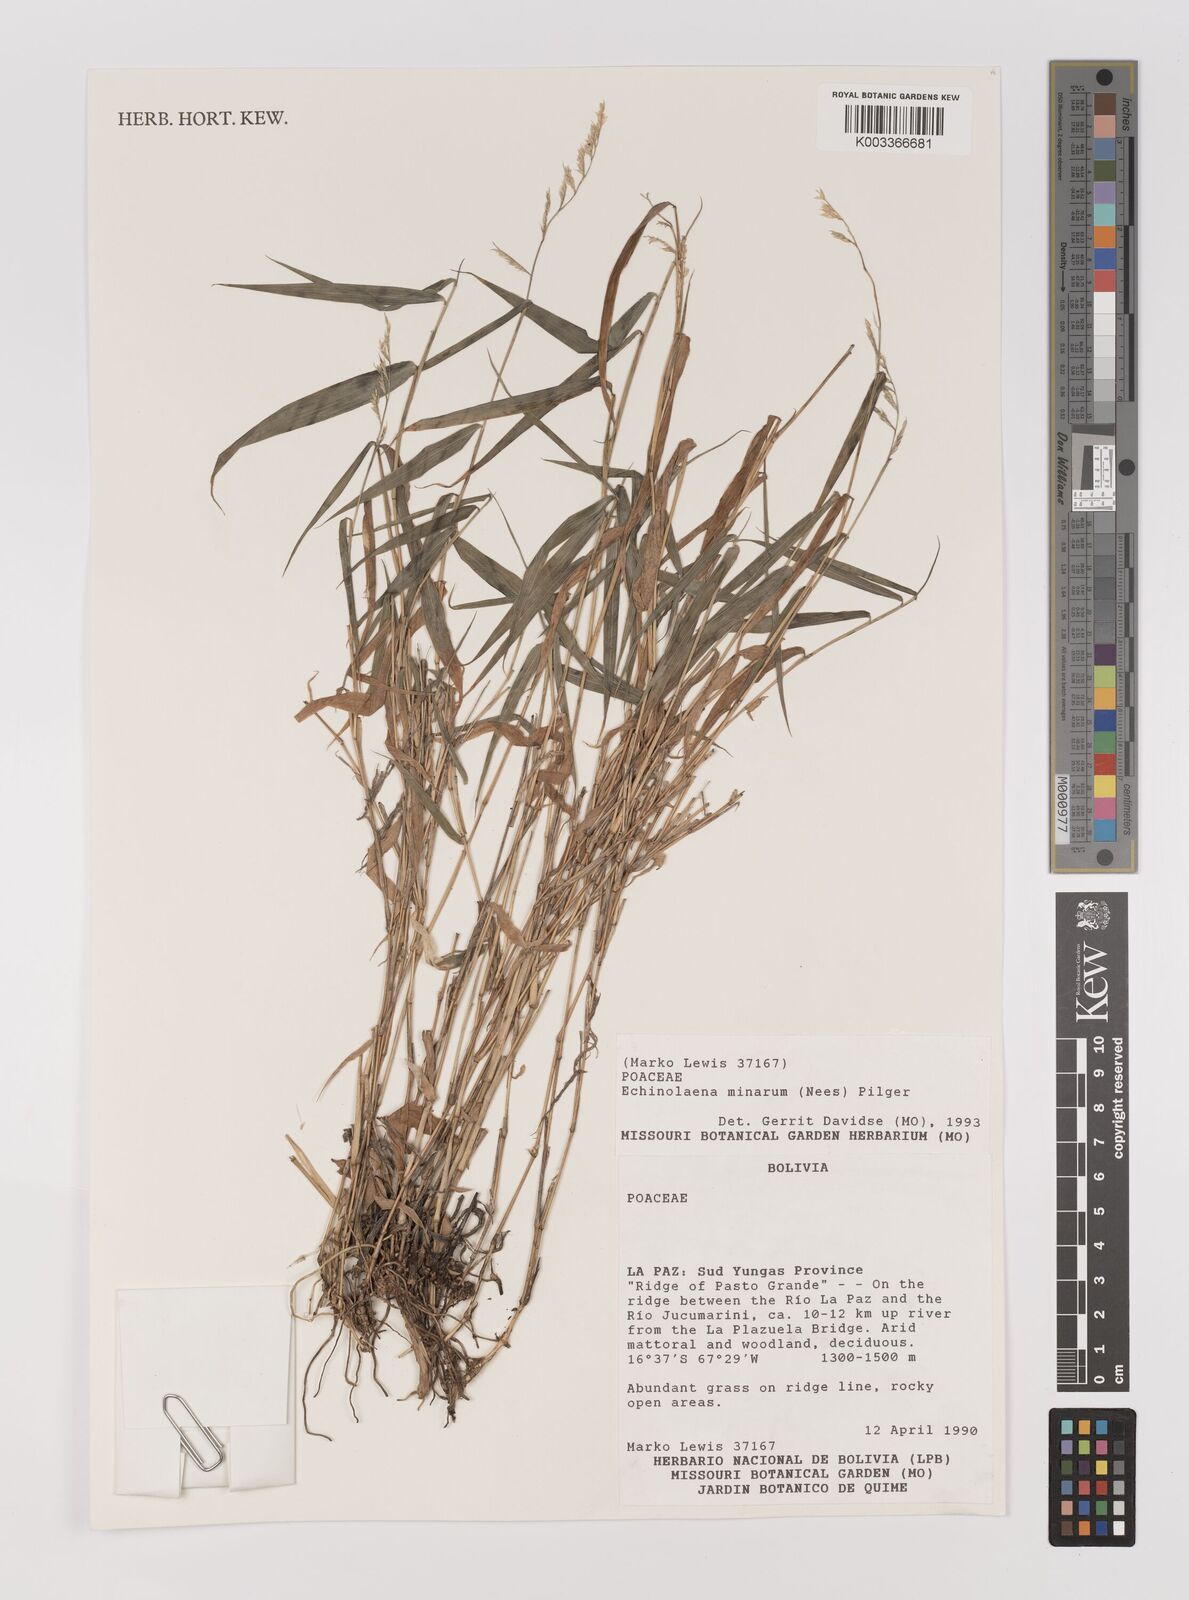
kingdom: Plantae
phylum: Tracheophyta
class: Liliopsida
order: Poales
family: Poaceae
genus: Oedochloa
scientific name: Oedochloa minarum
